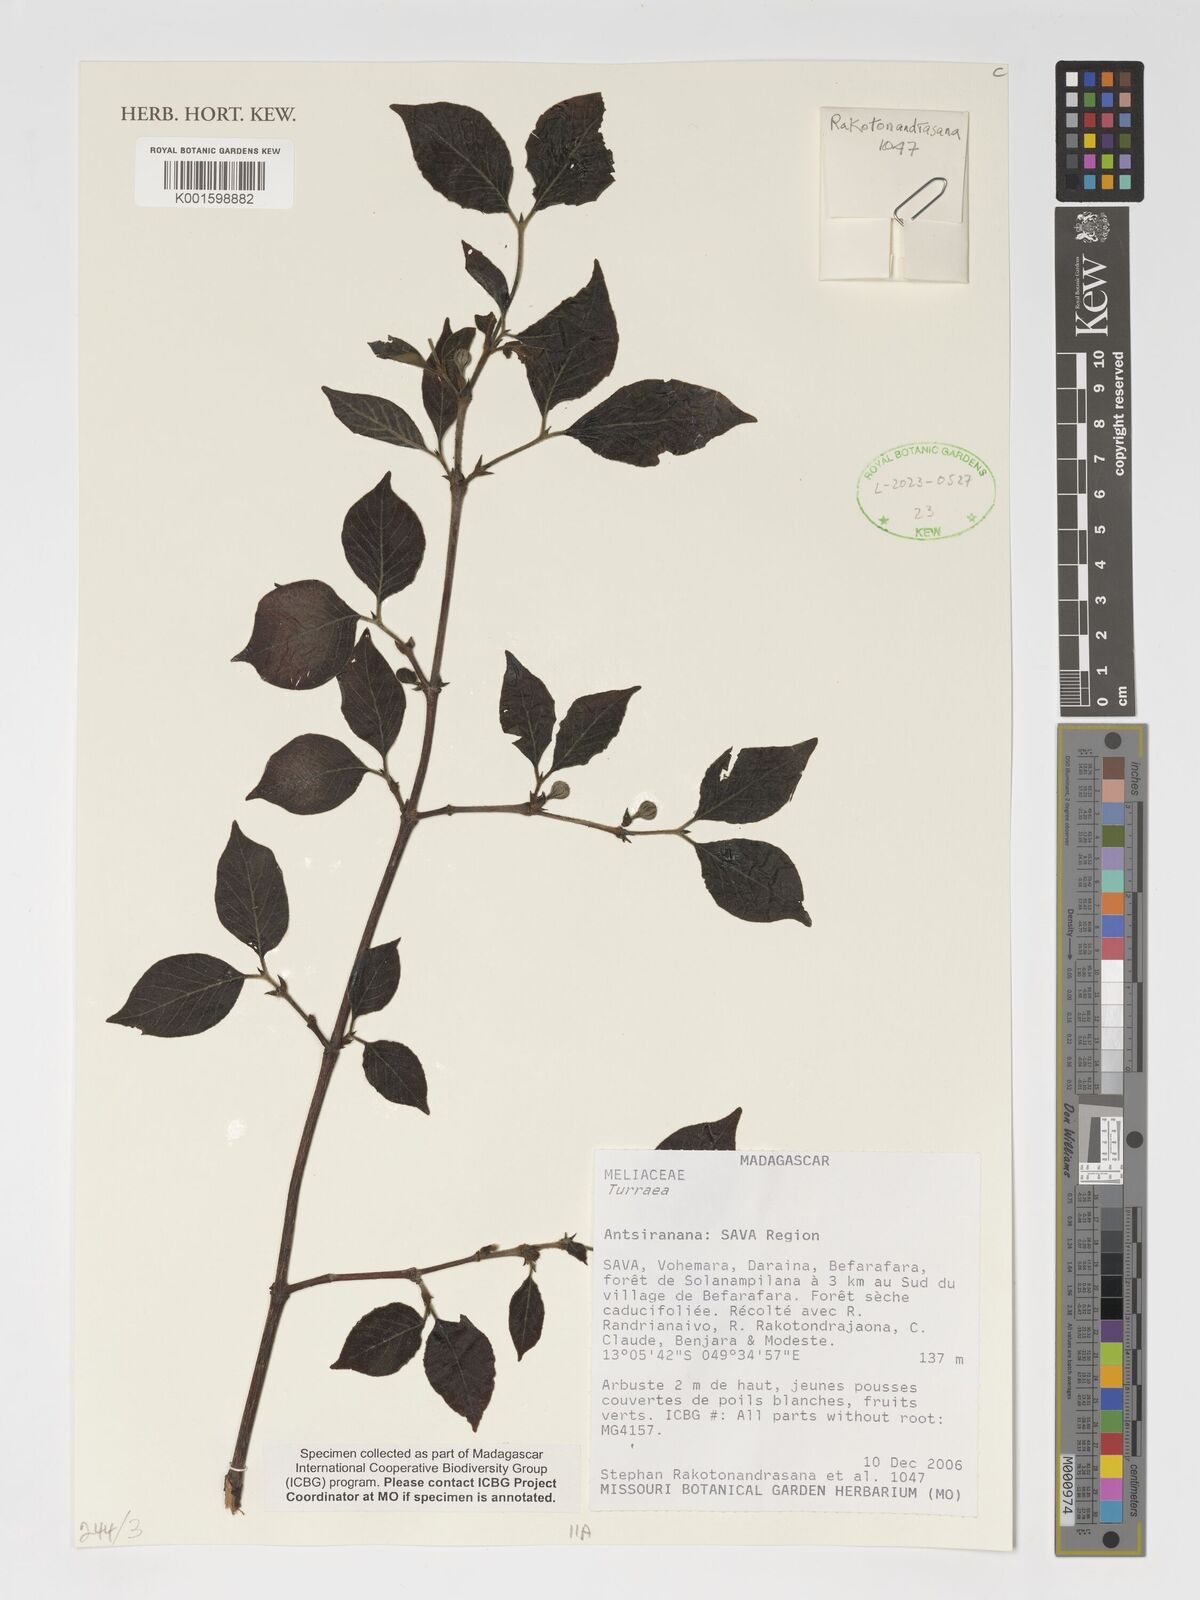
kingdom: Plantae
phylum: Tracheophyta
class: Magnoliopsida
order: Sapindales
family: Meliaceae
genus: Turraea
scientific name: Turraea
